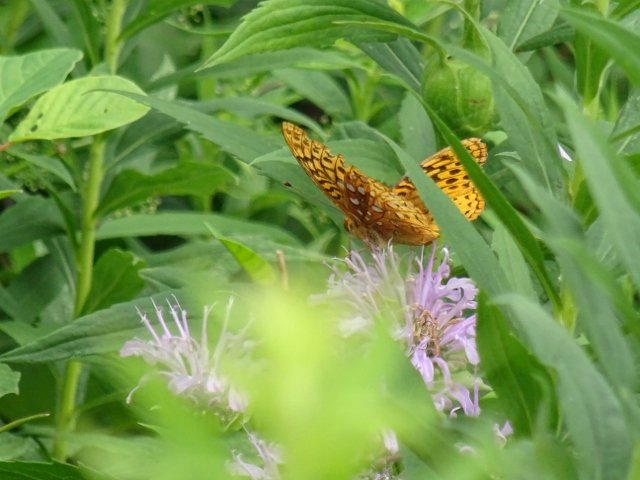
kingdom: Animalia
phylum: Arthropoda
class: Insecta
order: Lepidoptera
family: Nymphalidae
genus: Speyeria
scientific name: Speyeria
